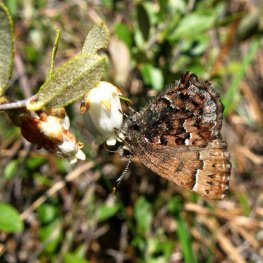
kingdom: Animalia
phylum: Arthropoda
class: Insecta
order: Lepidoptera
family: Lycaenidae
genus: Incisalia
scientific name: Incisalia lanoraieensis
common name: Bog Elfin
